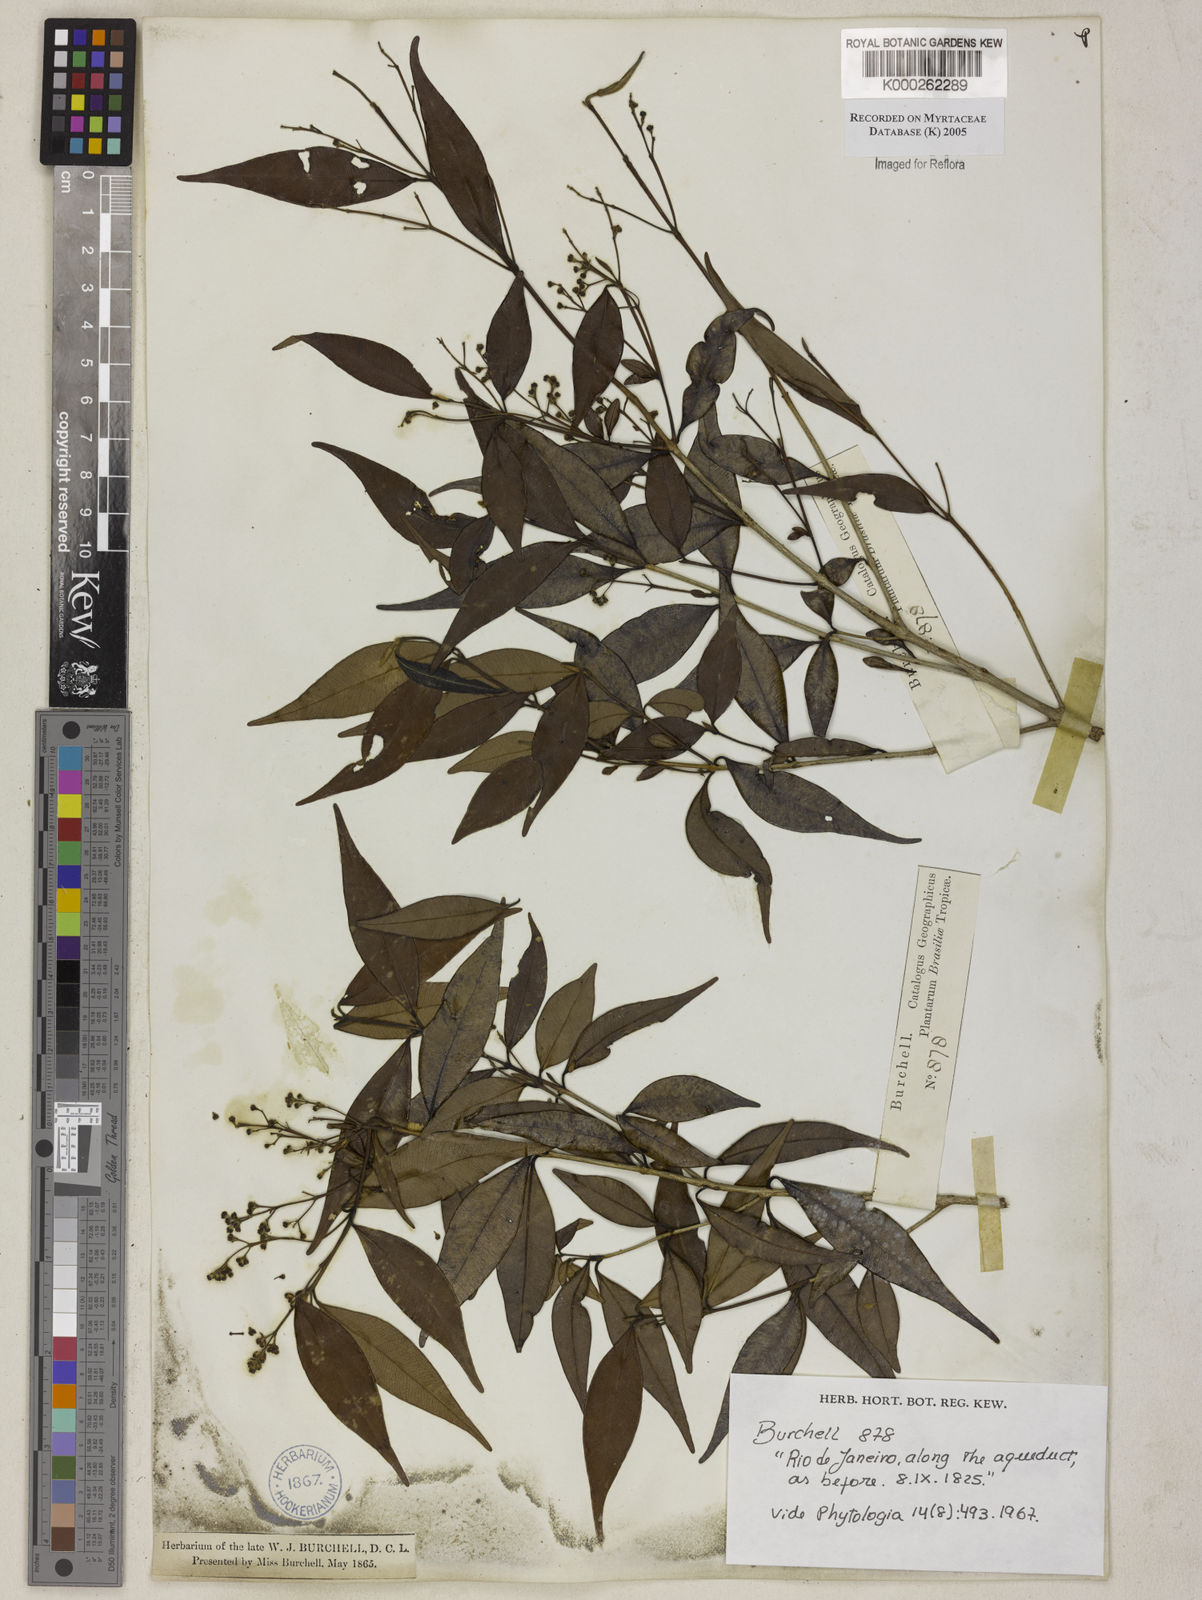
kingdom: Plantae
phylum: Tracheophyta
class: Magnoliopsida
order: Myrtales
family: Myrtaceae
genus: Myrcia
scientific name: Myrcia splendens
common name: Surinam cherry
